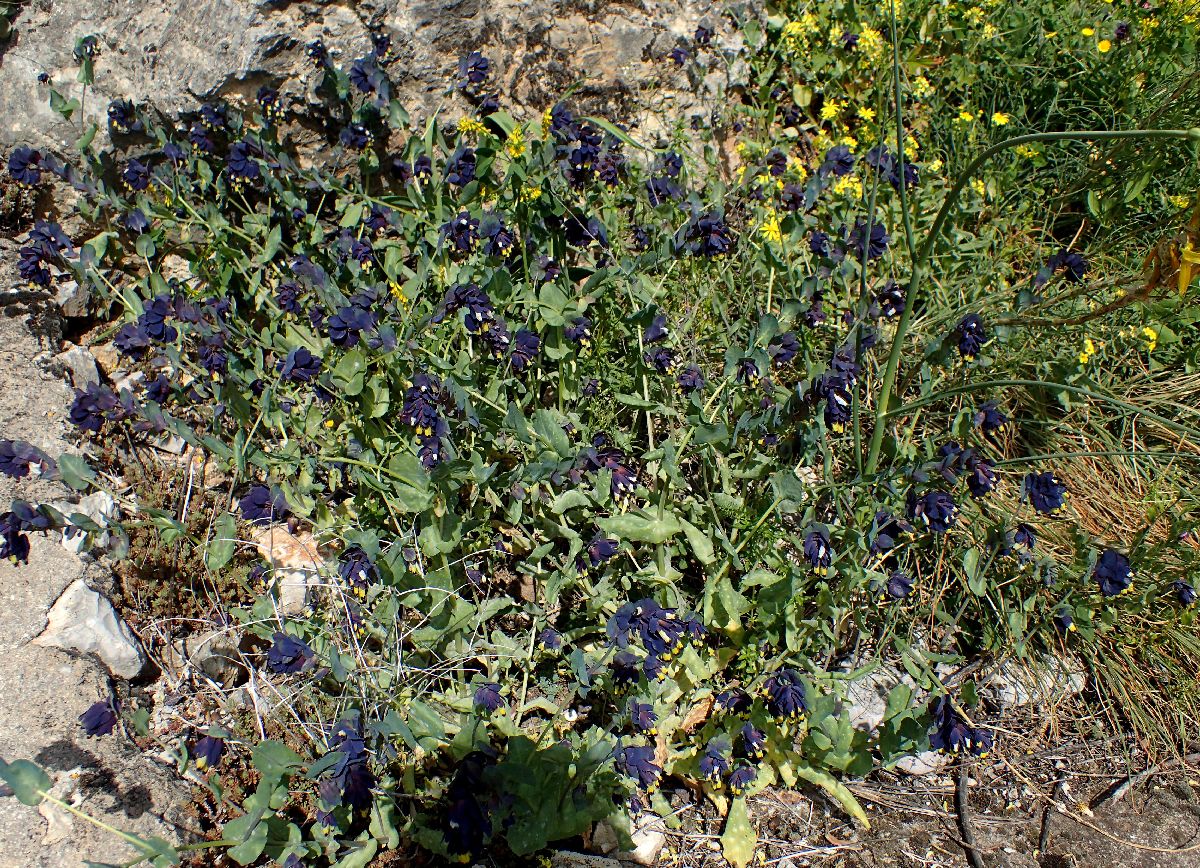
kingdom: Plantae
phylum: Tracheophyta
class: Magnoliopsida
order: Boraginales
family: Boraginaceae
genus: Cerinthe
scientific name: Cerinthe retorta
